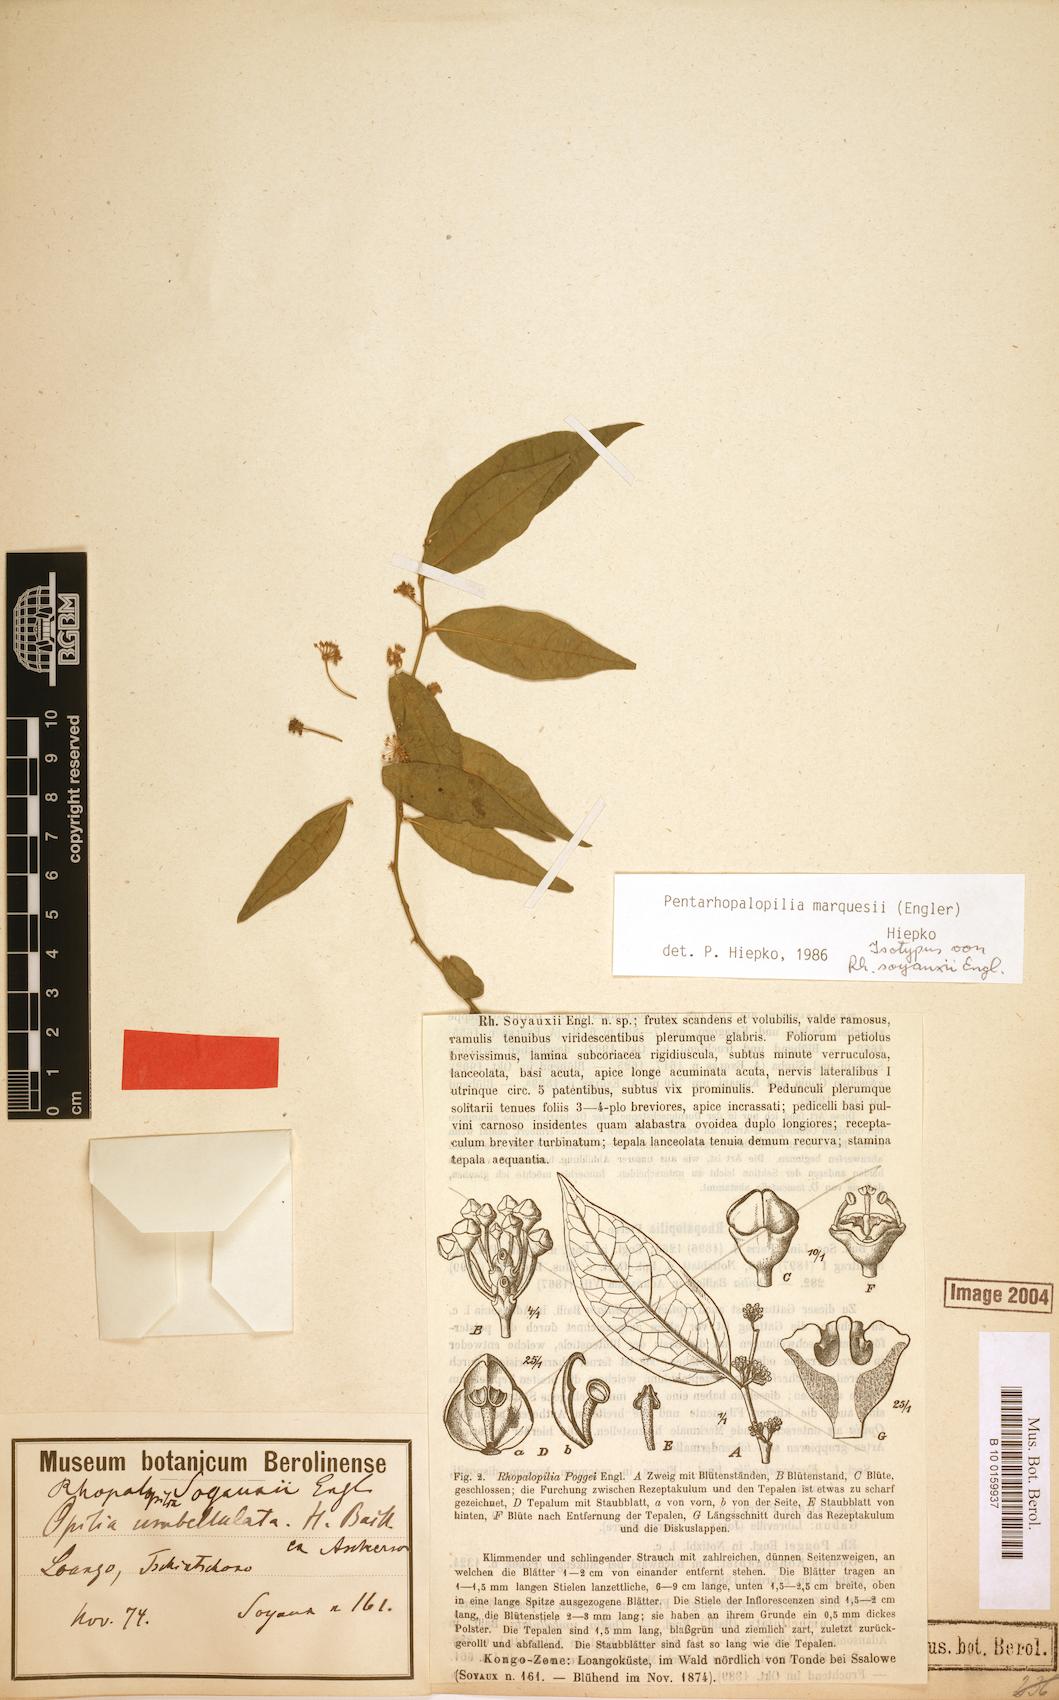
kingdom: Plantae
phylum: Tracheophyta
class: Magnoliopsida
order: Santalales
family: Opiliaceae
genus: Pentarhopalopilia
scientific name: Pentarhopalopilia marquesii
